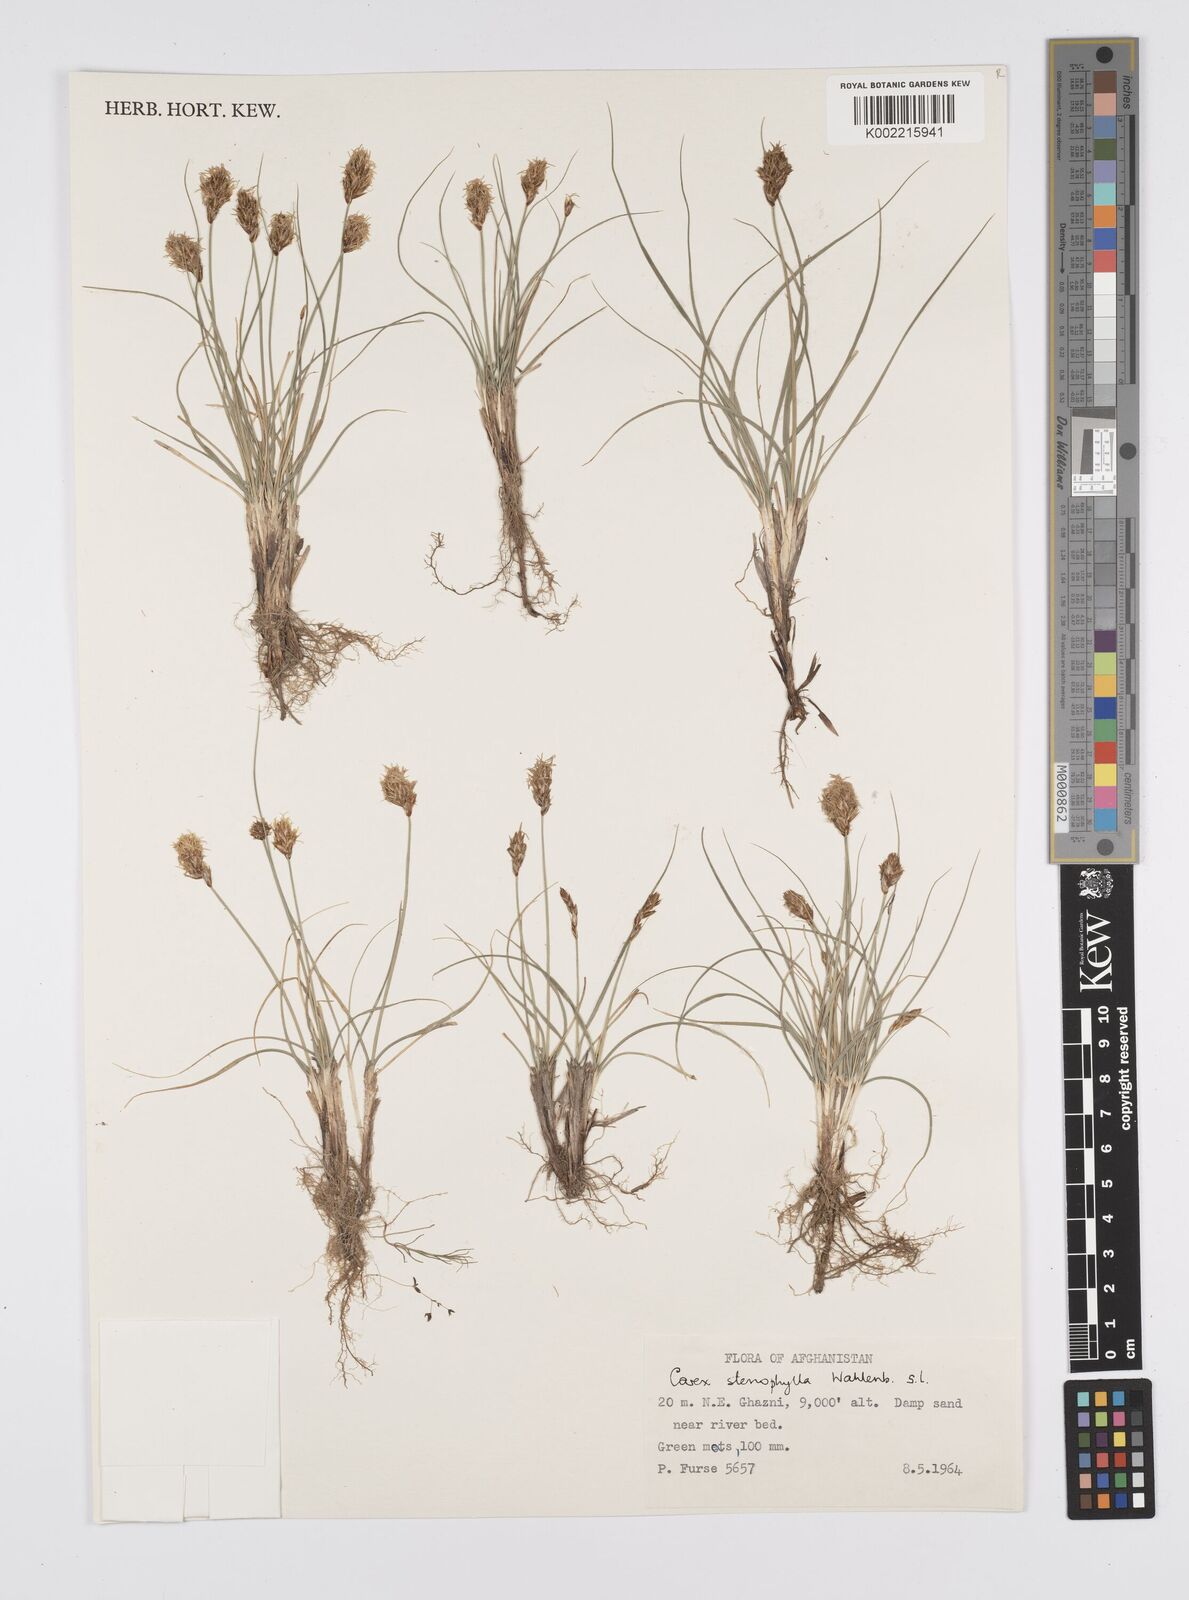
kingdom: Plantae
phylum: Tracheophyta
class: Liliopsida
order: Poales
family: Cyperaceae
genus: Carex
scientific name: Carex stenophylla
